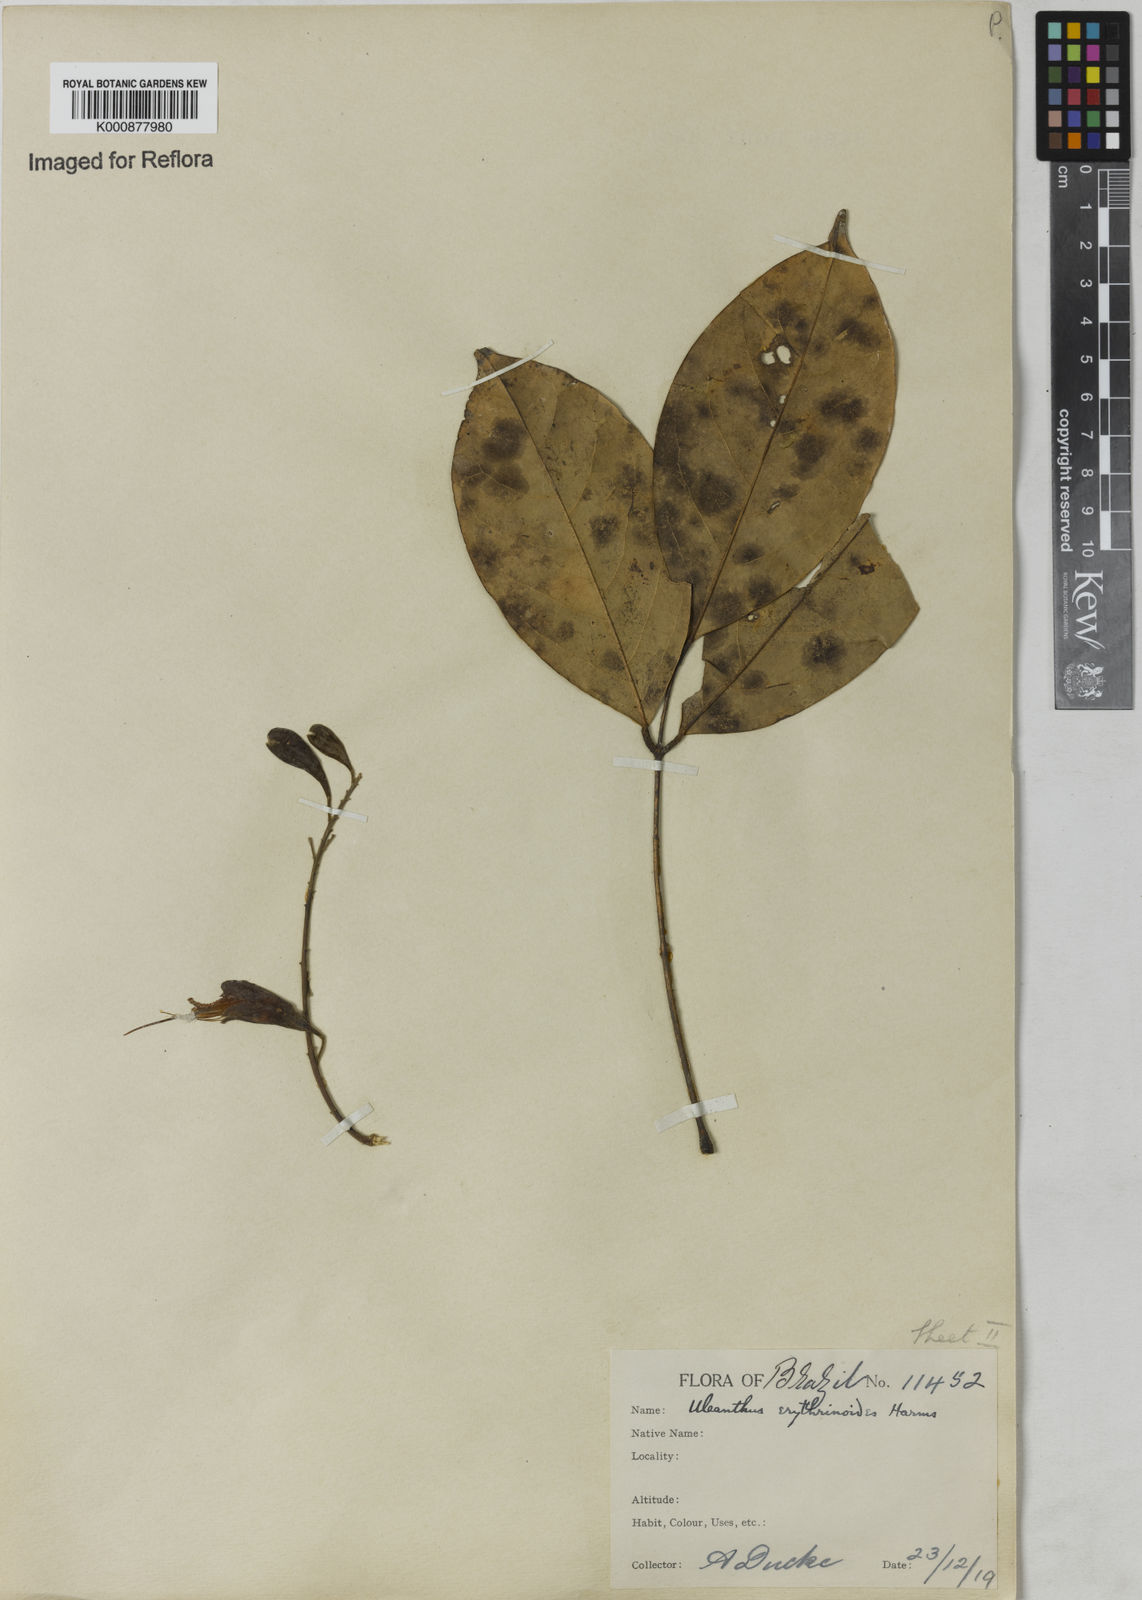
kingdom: Plantae
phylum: Tracheophyta
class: Magnoliopsida
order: Fabales
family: Fabaceae
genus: Uleanthus
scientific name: Uleanthus erythrinoides
